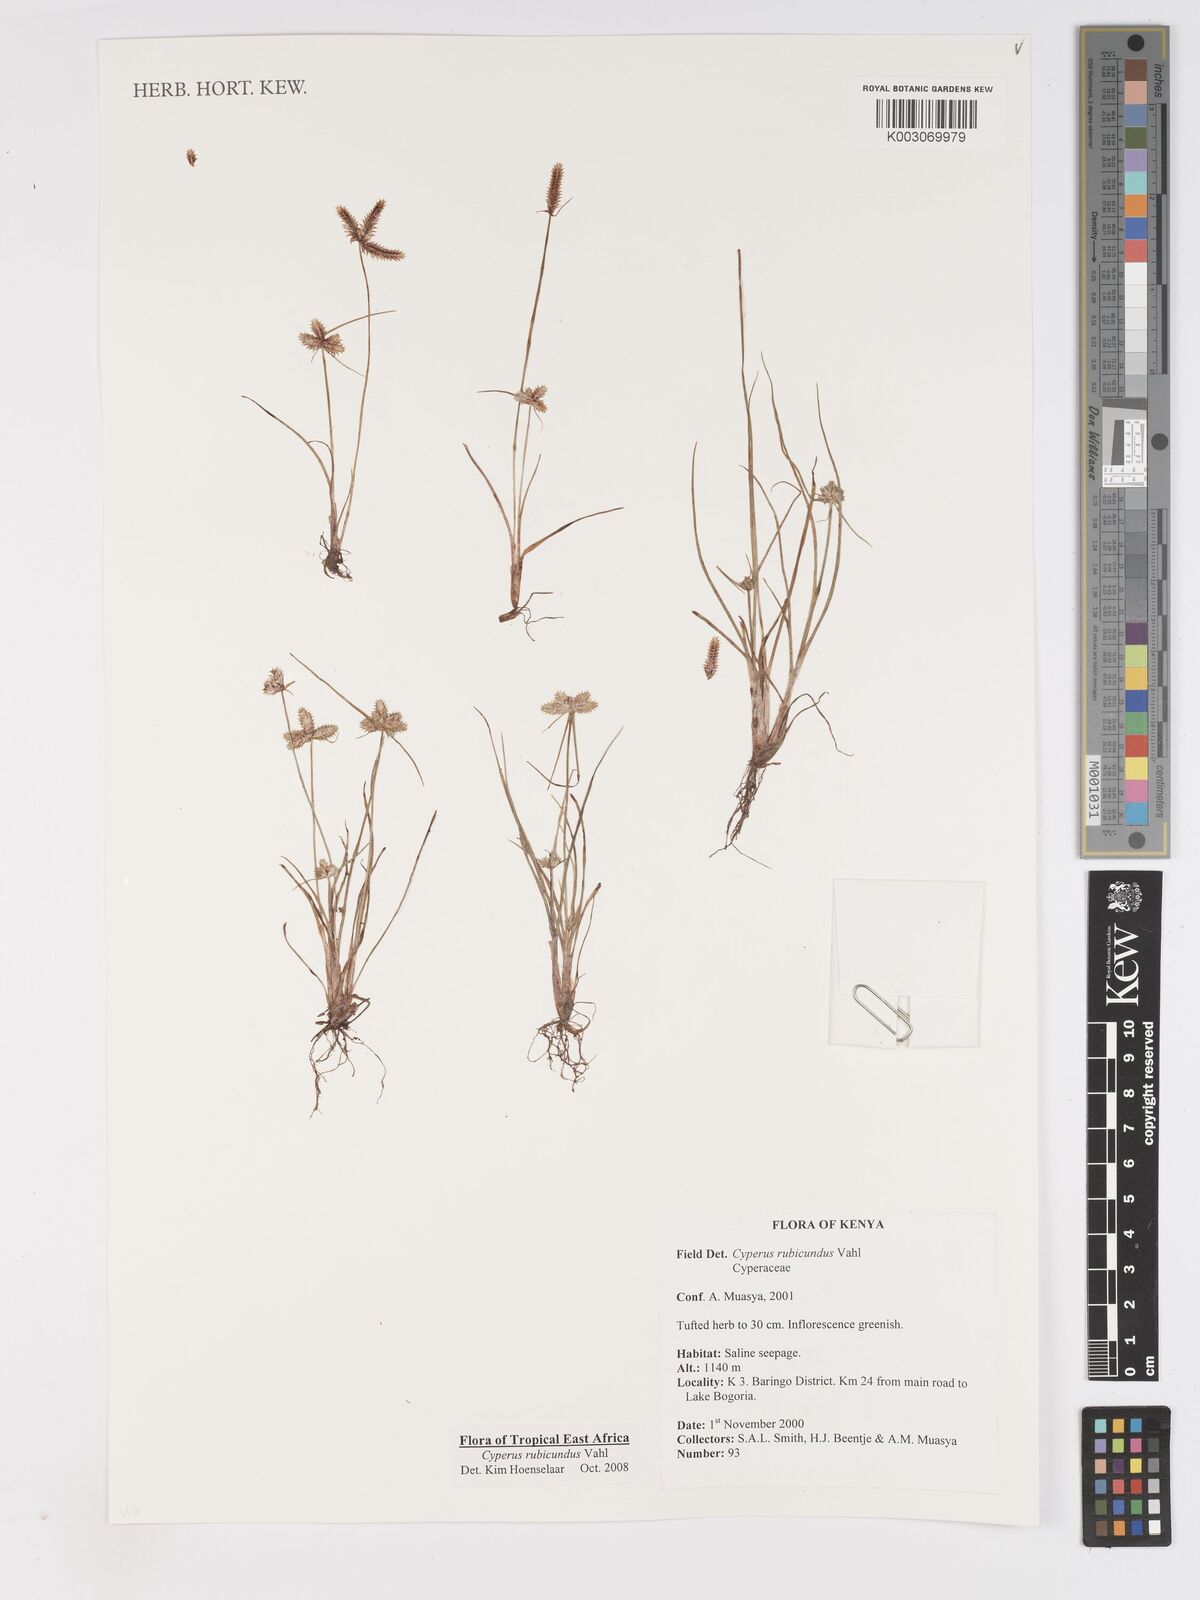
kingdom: Plantae
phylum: Tracheophyta
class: Liliopsida
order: Poales
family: Cyperaceae
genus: Cyperus
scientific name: Cyperus rubicundus
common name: Coco-grass
